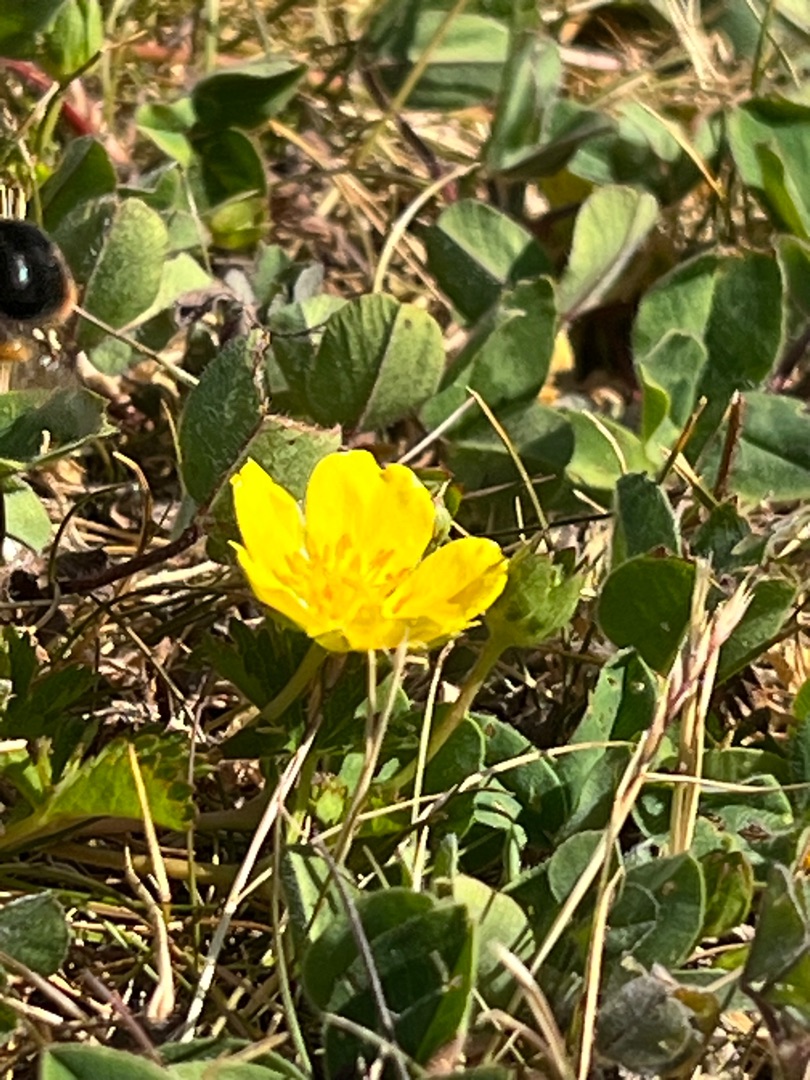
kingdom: Plantae
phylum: Tracheophyta
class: Magnoliopsida
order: Rosales
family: Rosaceae
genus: Potentilla
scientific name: Potentilla reptans
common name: Krybende potentil
